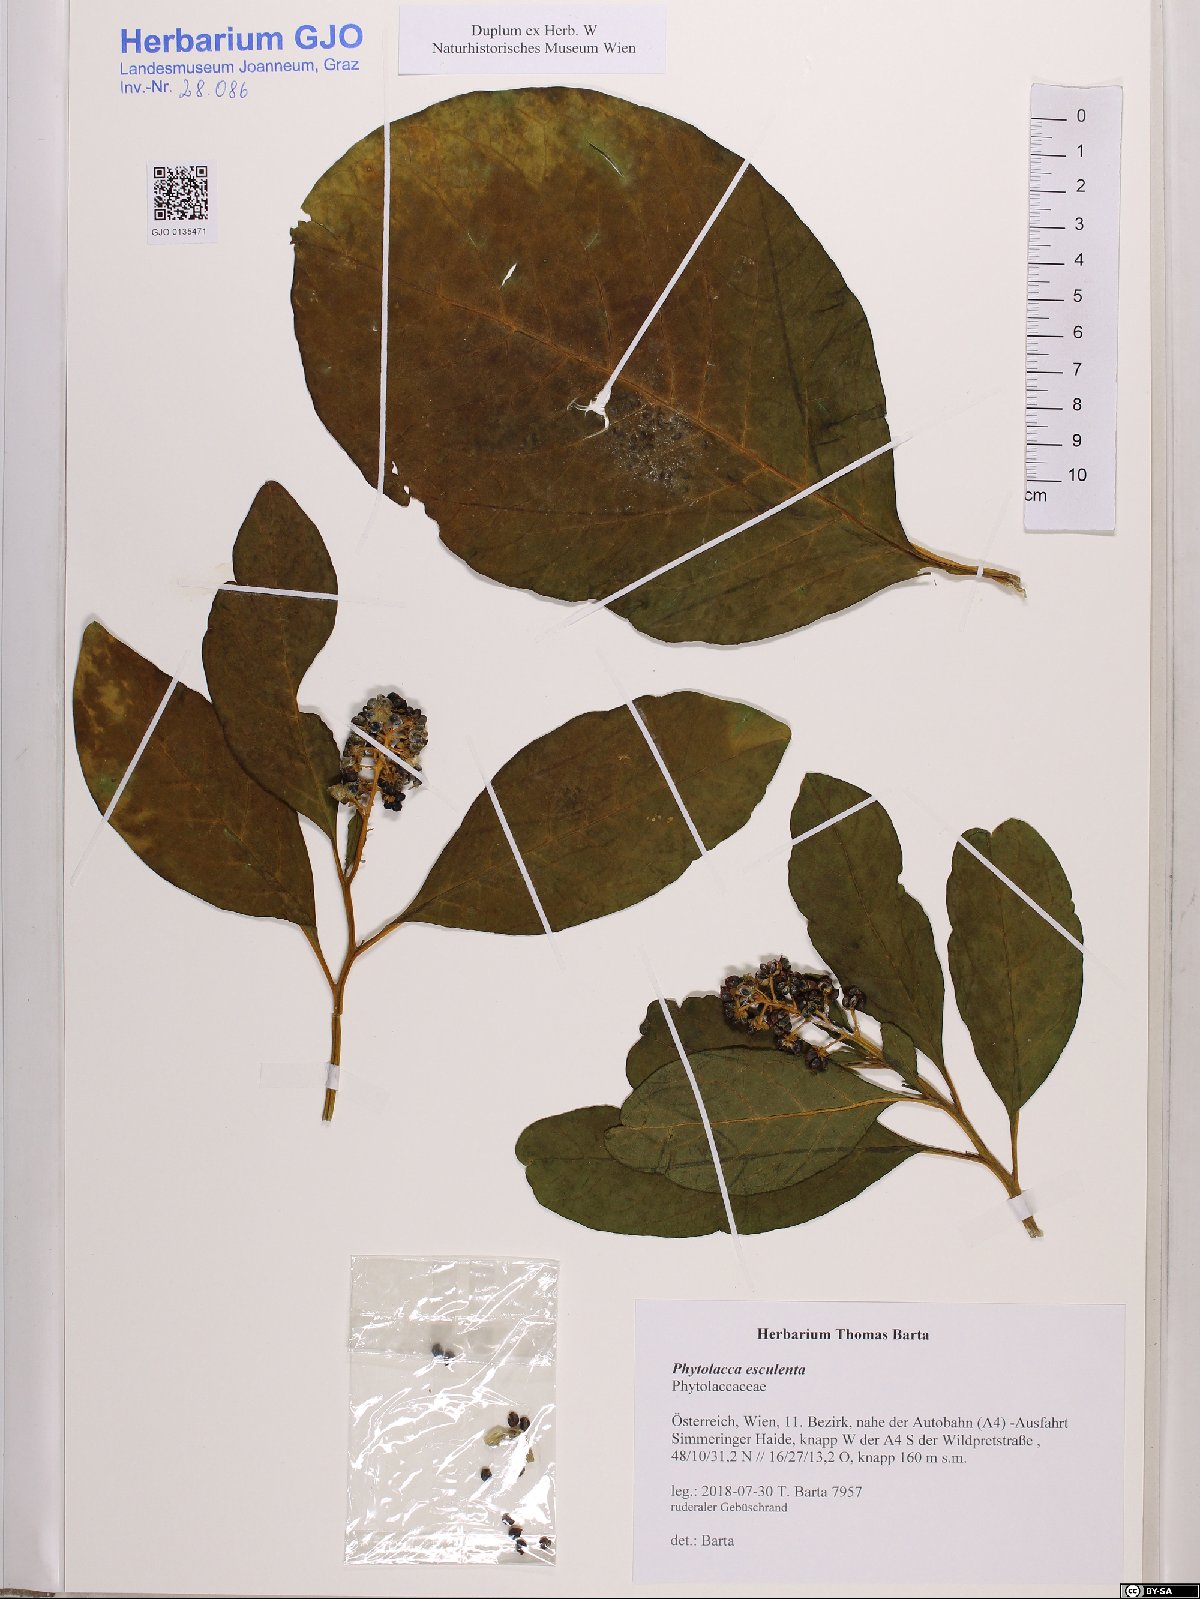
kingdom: Plantae
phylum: Tracheophyta
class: Magnoliopsida
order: Caryophyllales
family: Phytolaccaceae
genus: Phytolacca
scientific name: Phytolacca acinosa
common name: Indian pokeweed
